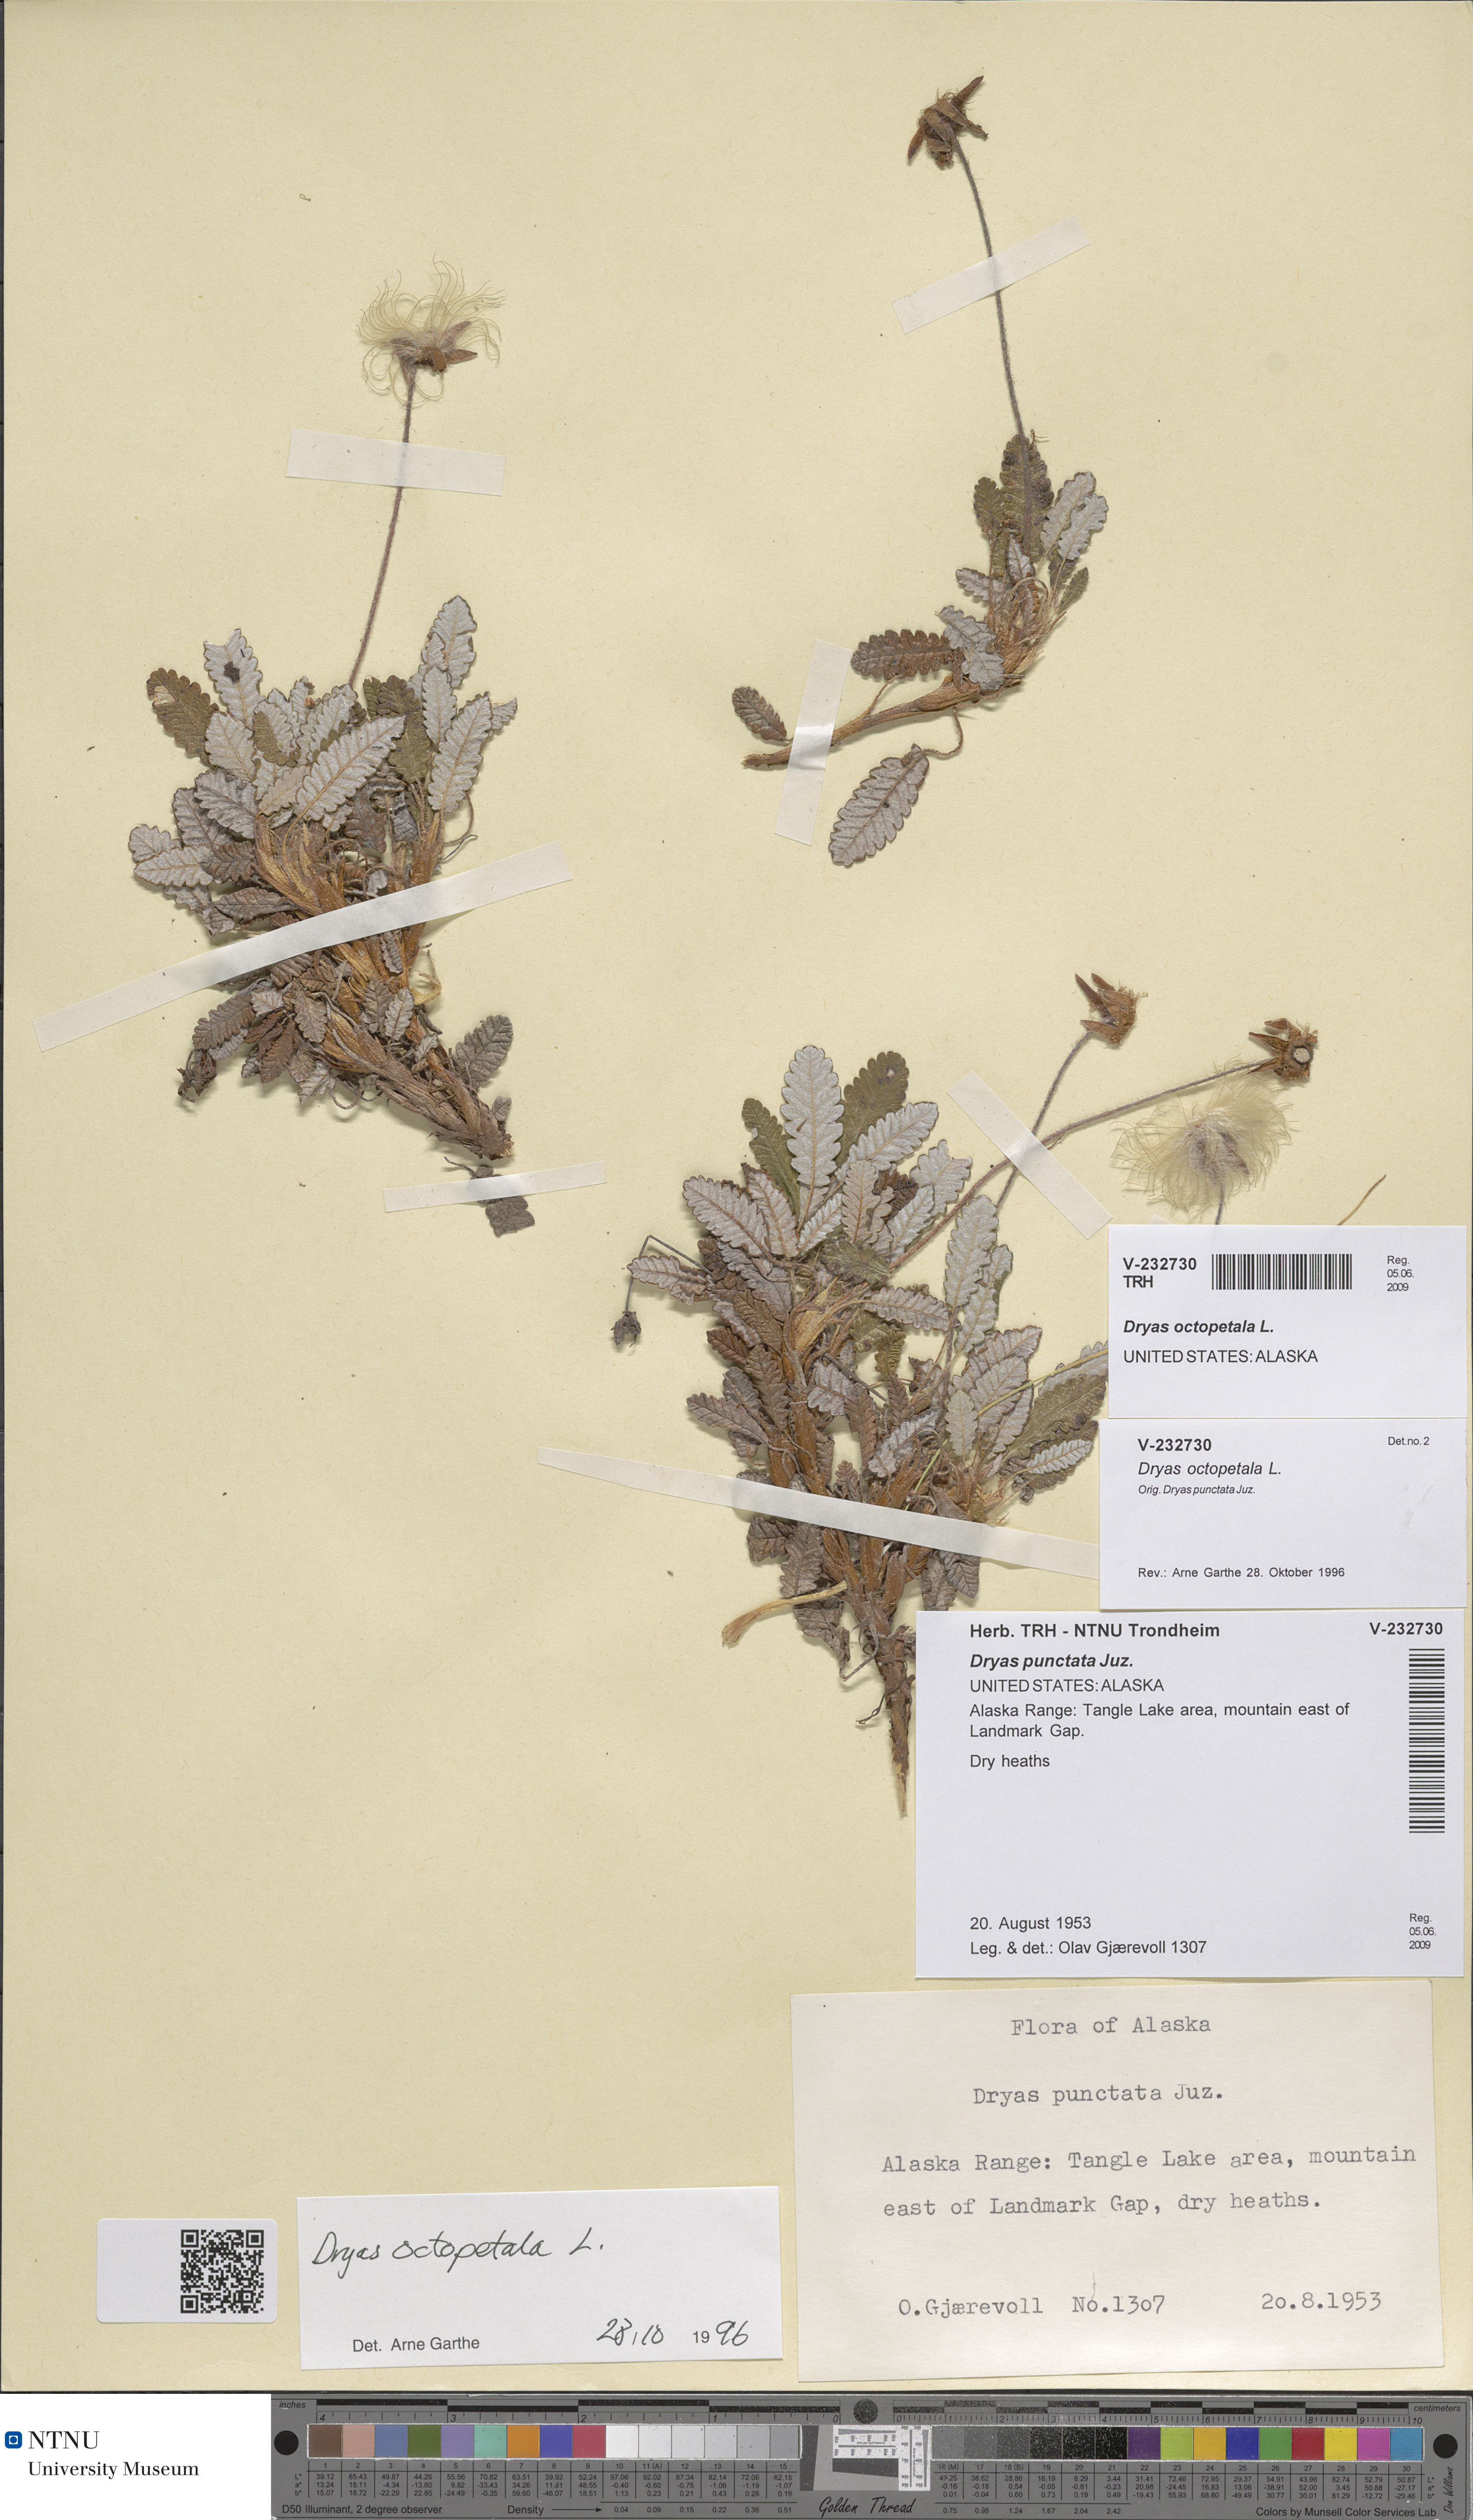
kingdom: Plantae
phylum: Tracheophyta
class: Magnoliopsida
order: Rosales
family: Rosaceae
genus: Dryas
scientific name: Dryas octopetala
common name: Eight-petal mountain-avens
